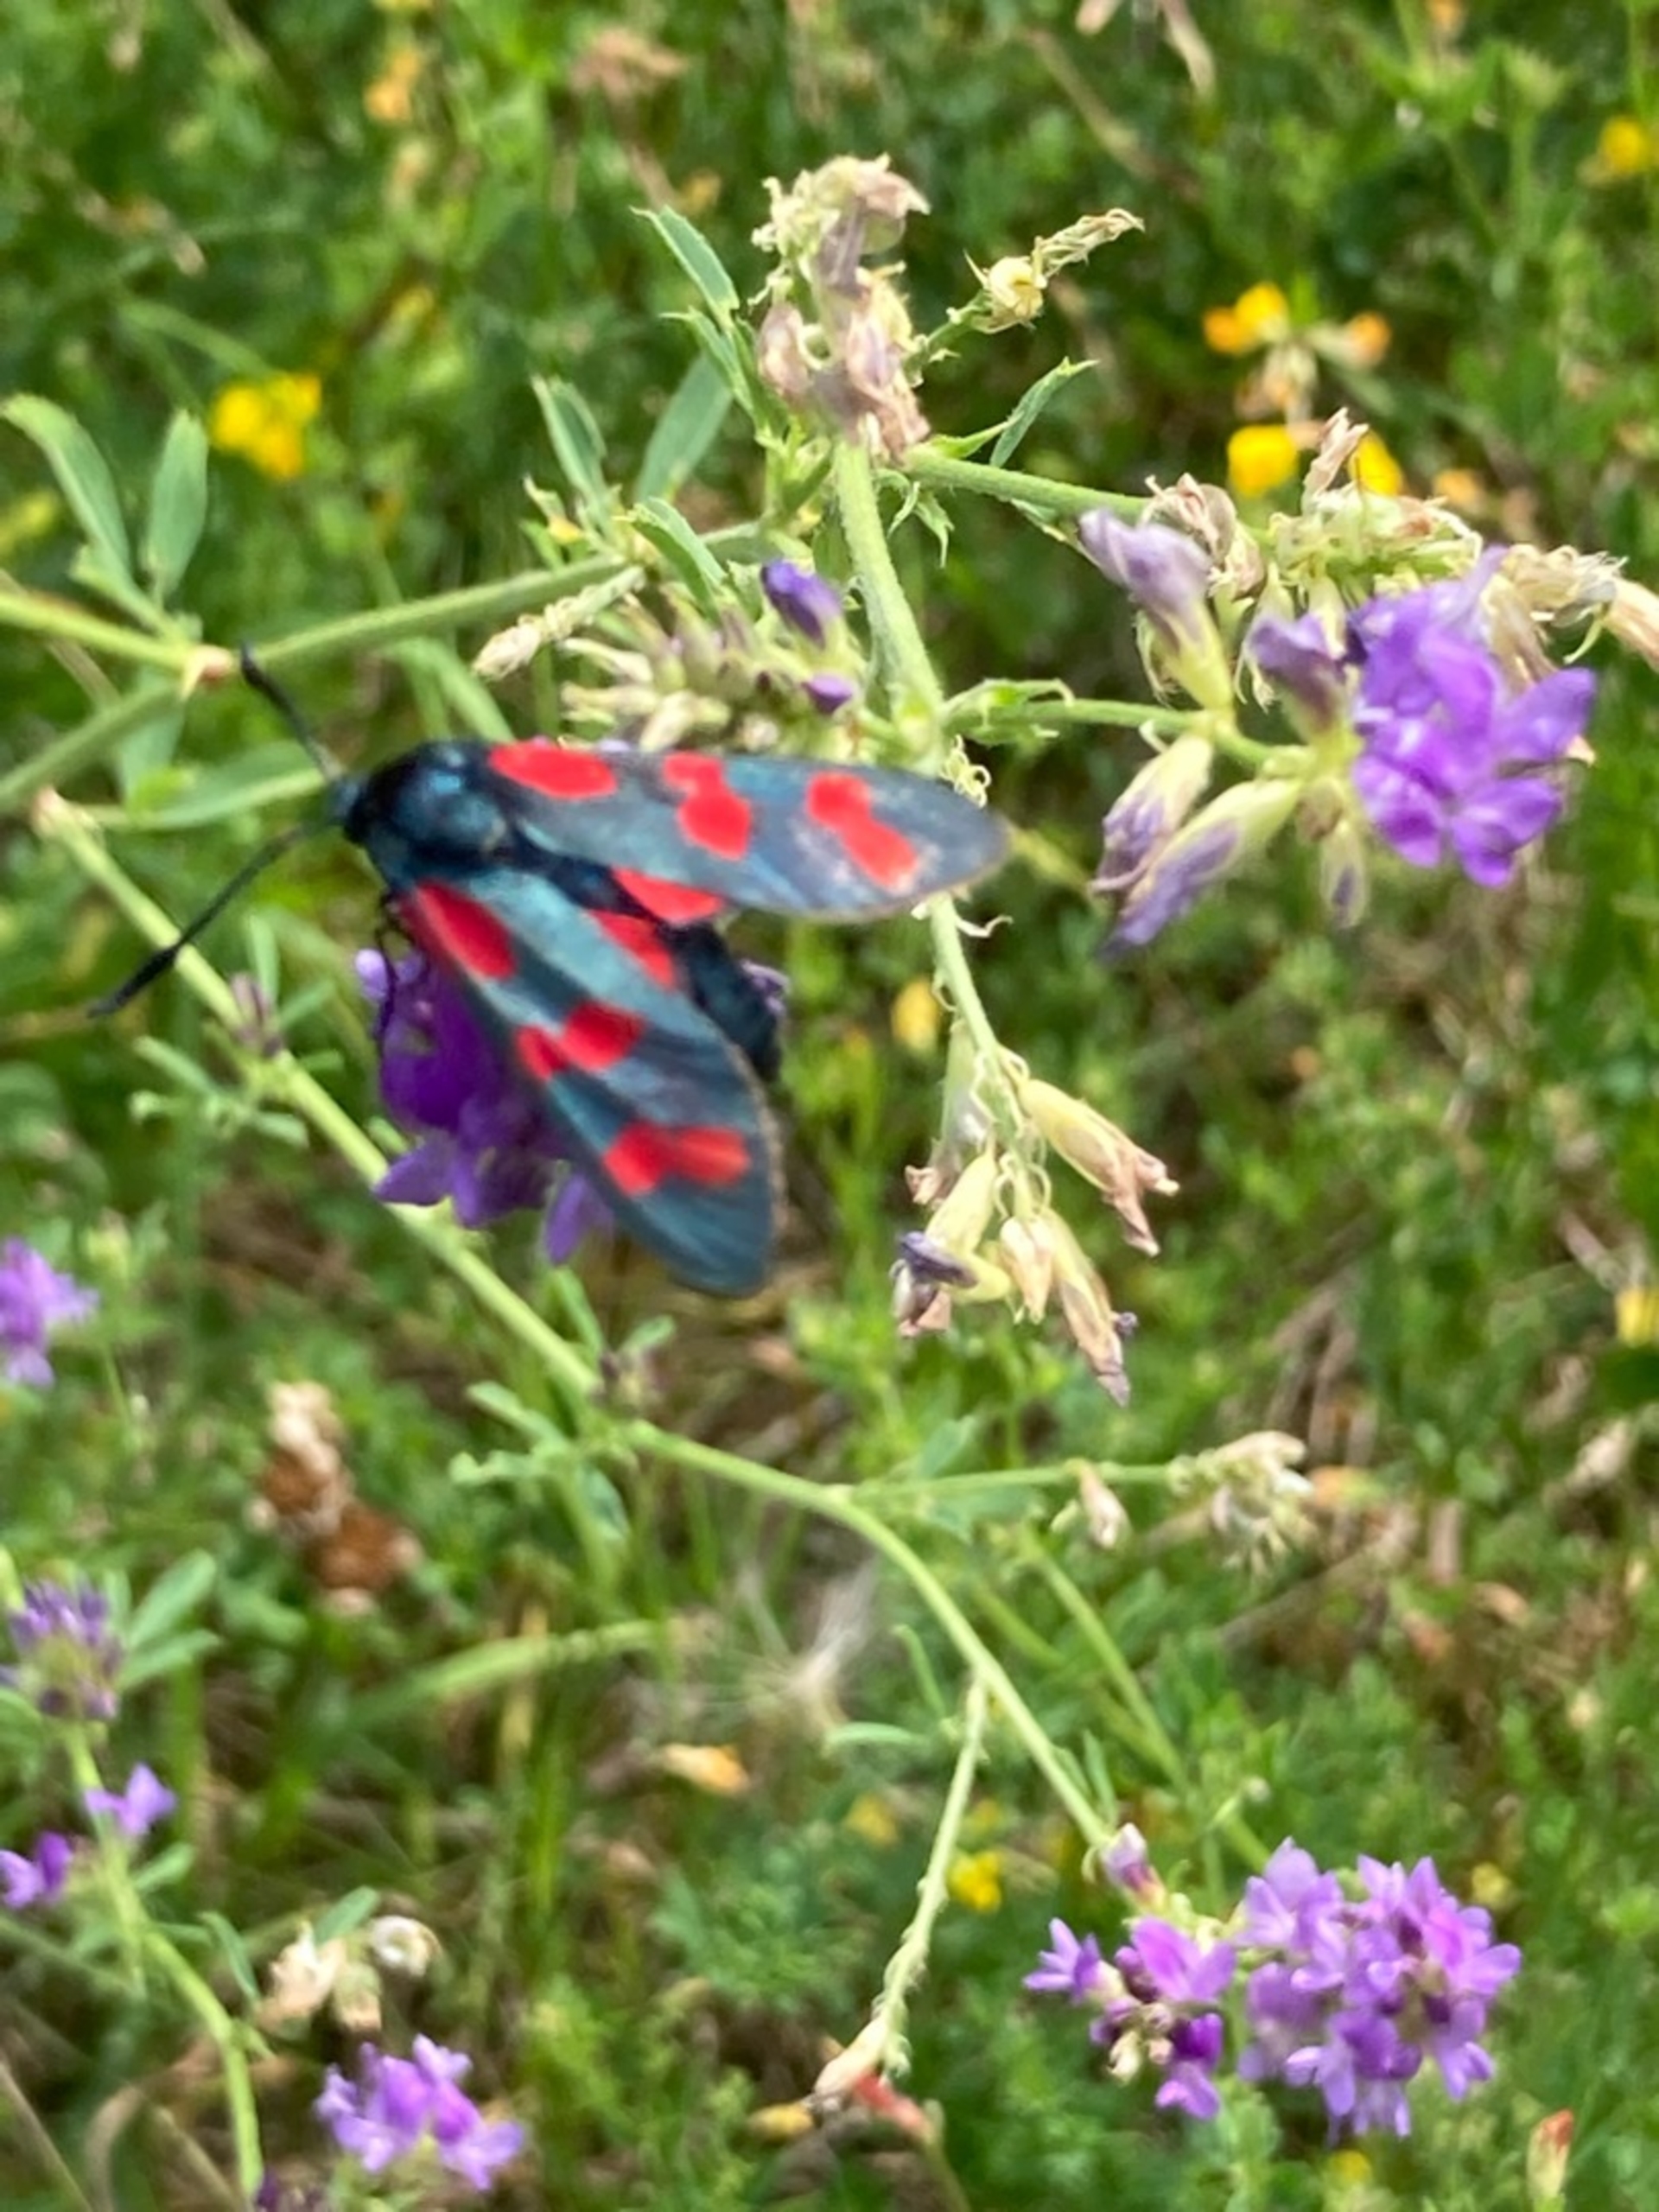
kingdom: Animalia
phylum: Arthropoda
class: Insecta
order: Lepidoptera
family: Zygaenidae
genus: Zygaena
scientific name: Zygaena filipendulae
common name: Seksplettet køllesværmer
